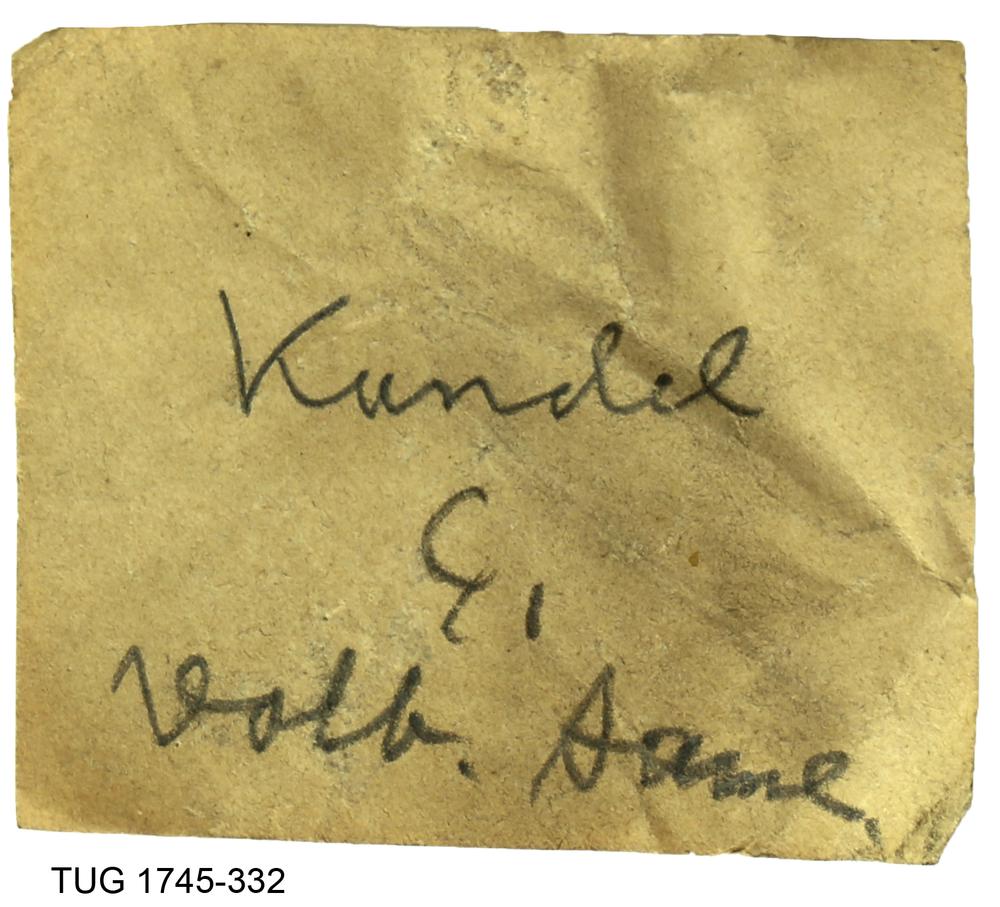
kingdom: Animalia
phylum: Mollusca
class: Cephalopoda
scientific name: Cephalopoda
